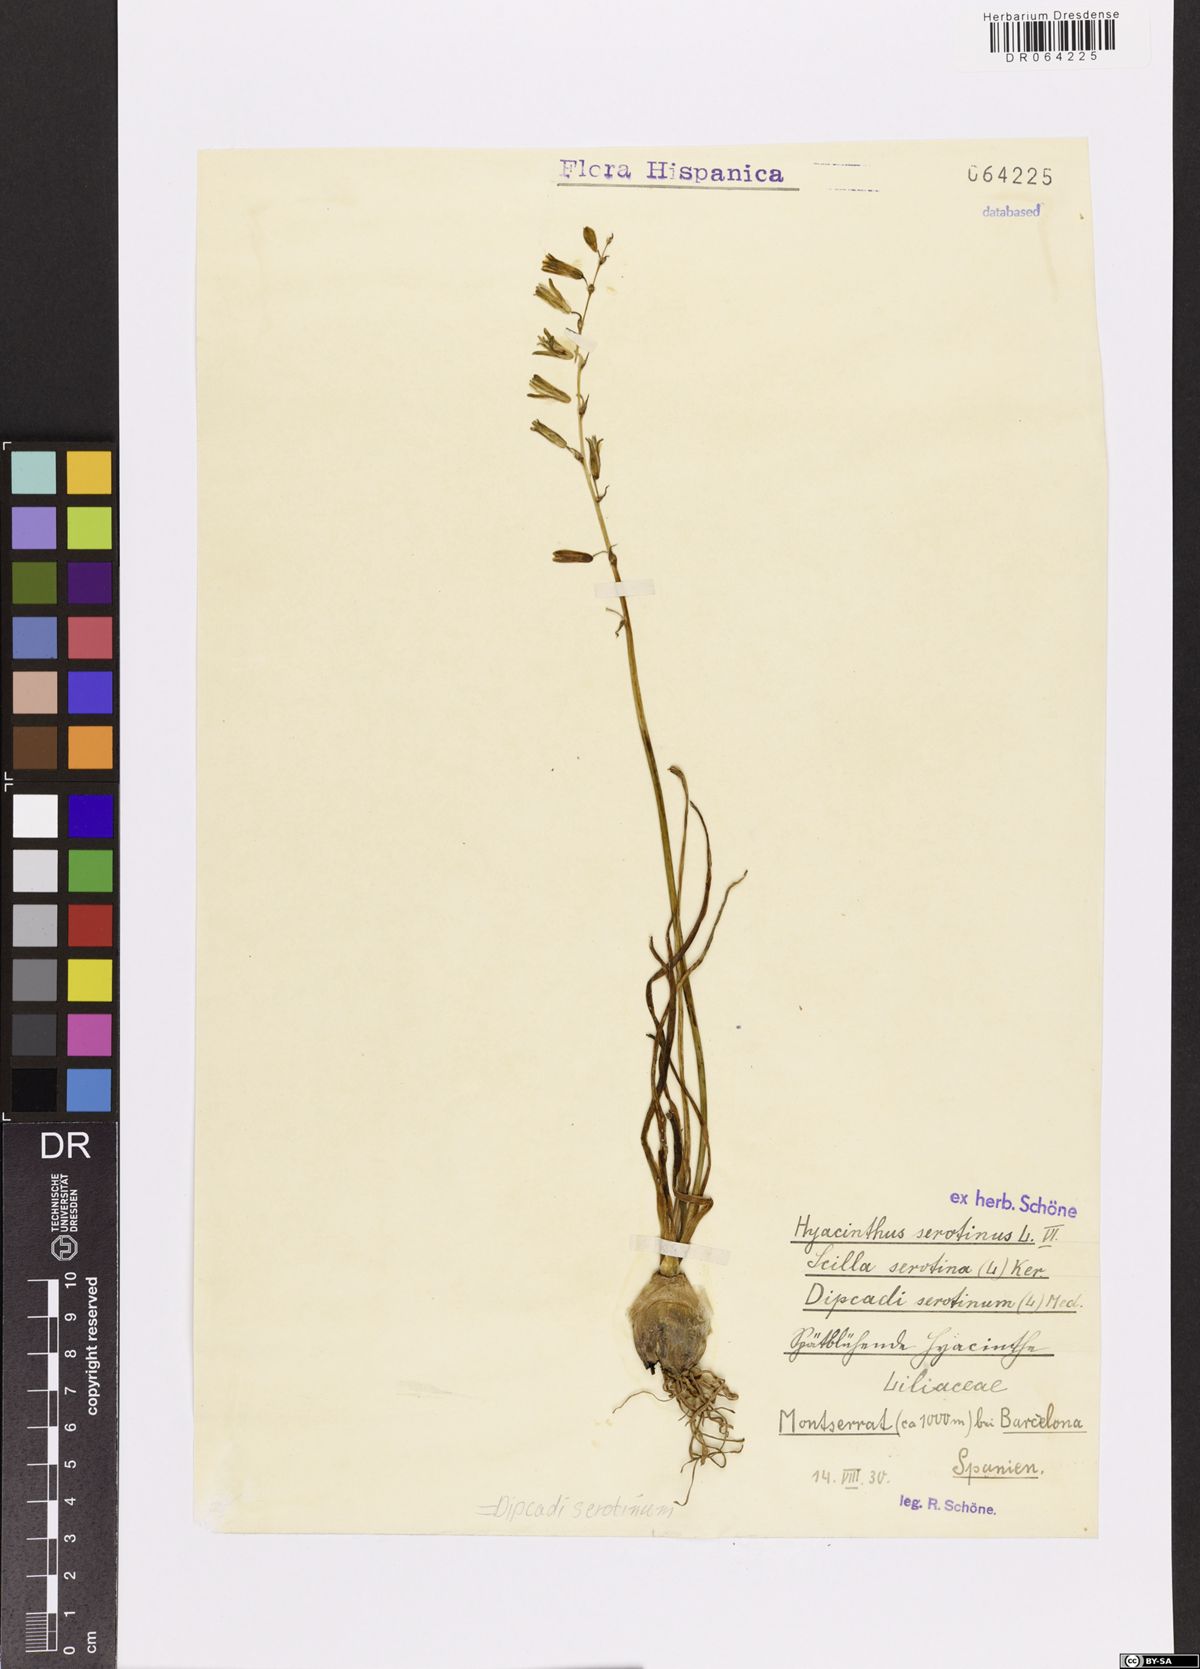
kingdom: Plantae
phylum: Tracheophyta
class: Liliopsida
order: Asparagales
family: Asparagaceae
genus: Dipcadi
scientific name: Dipcadi serotinum
